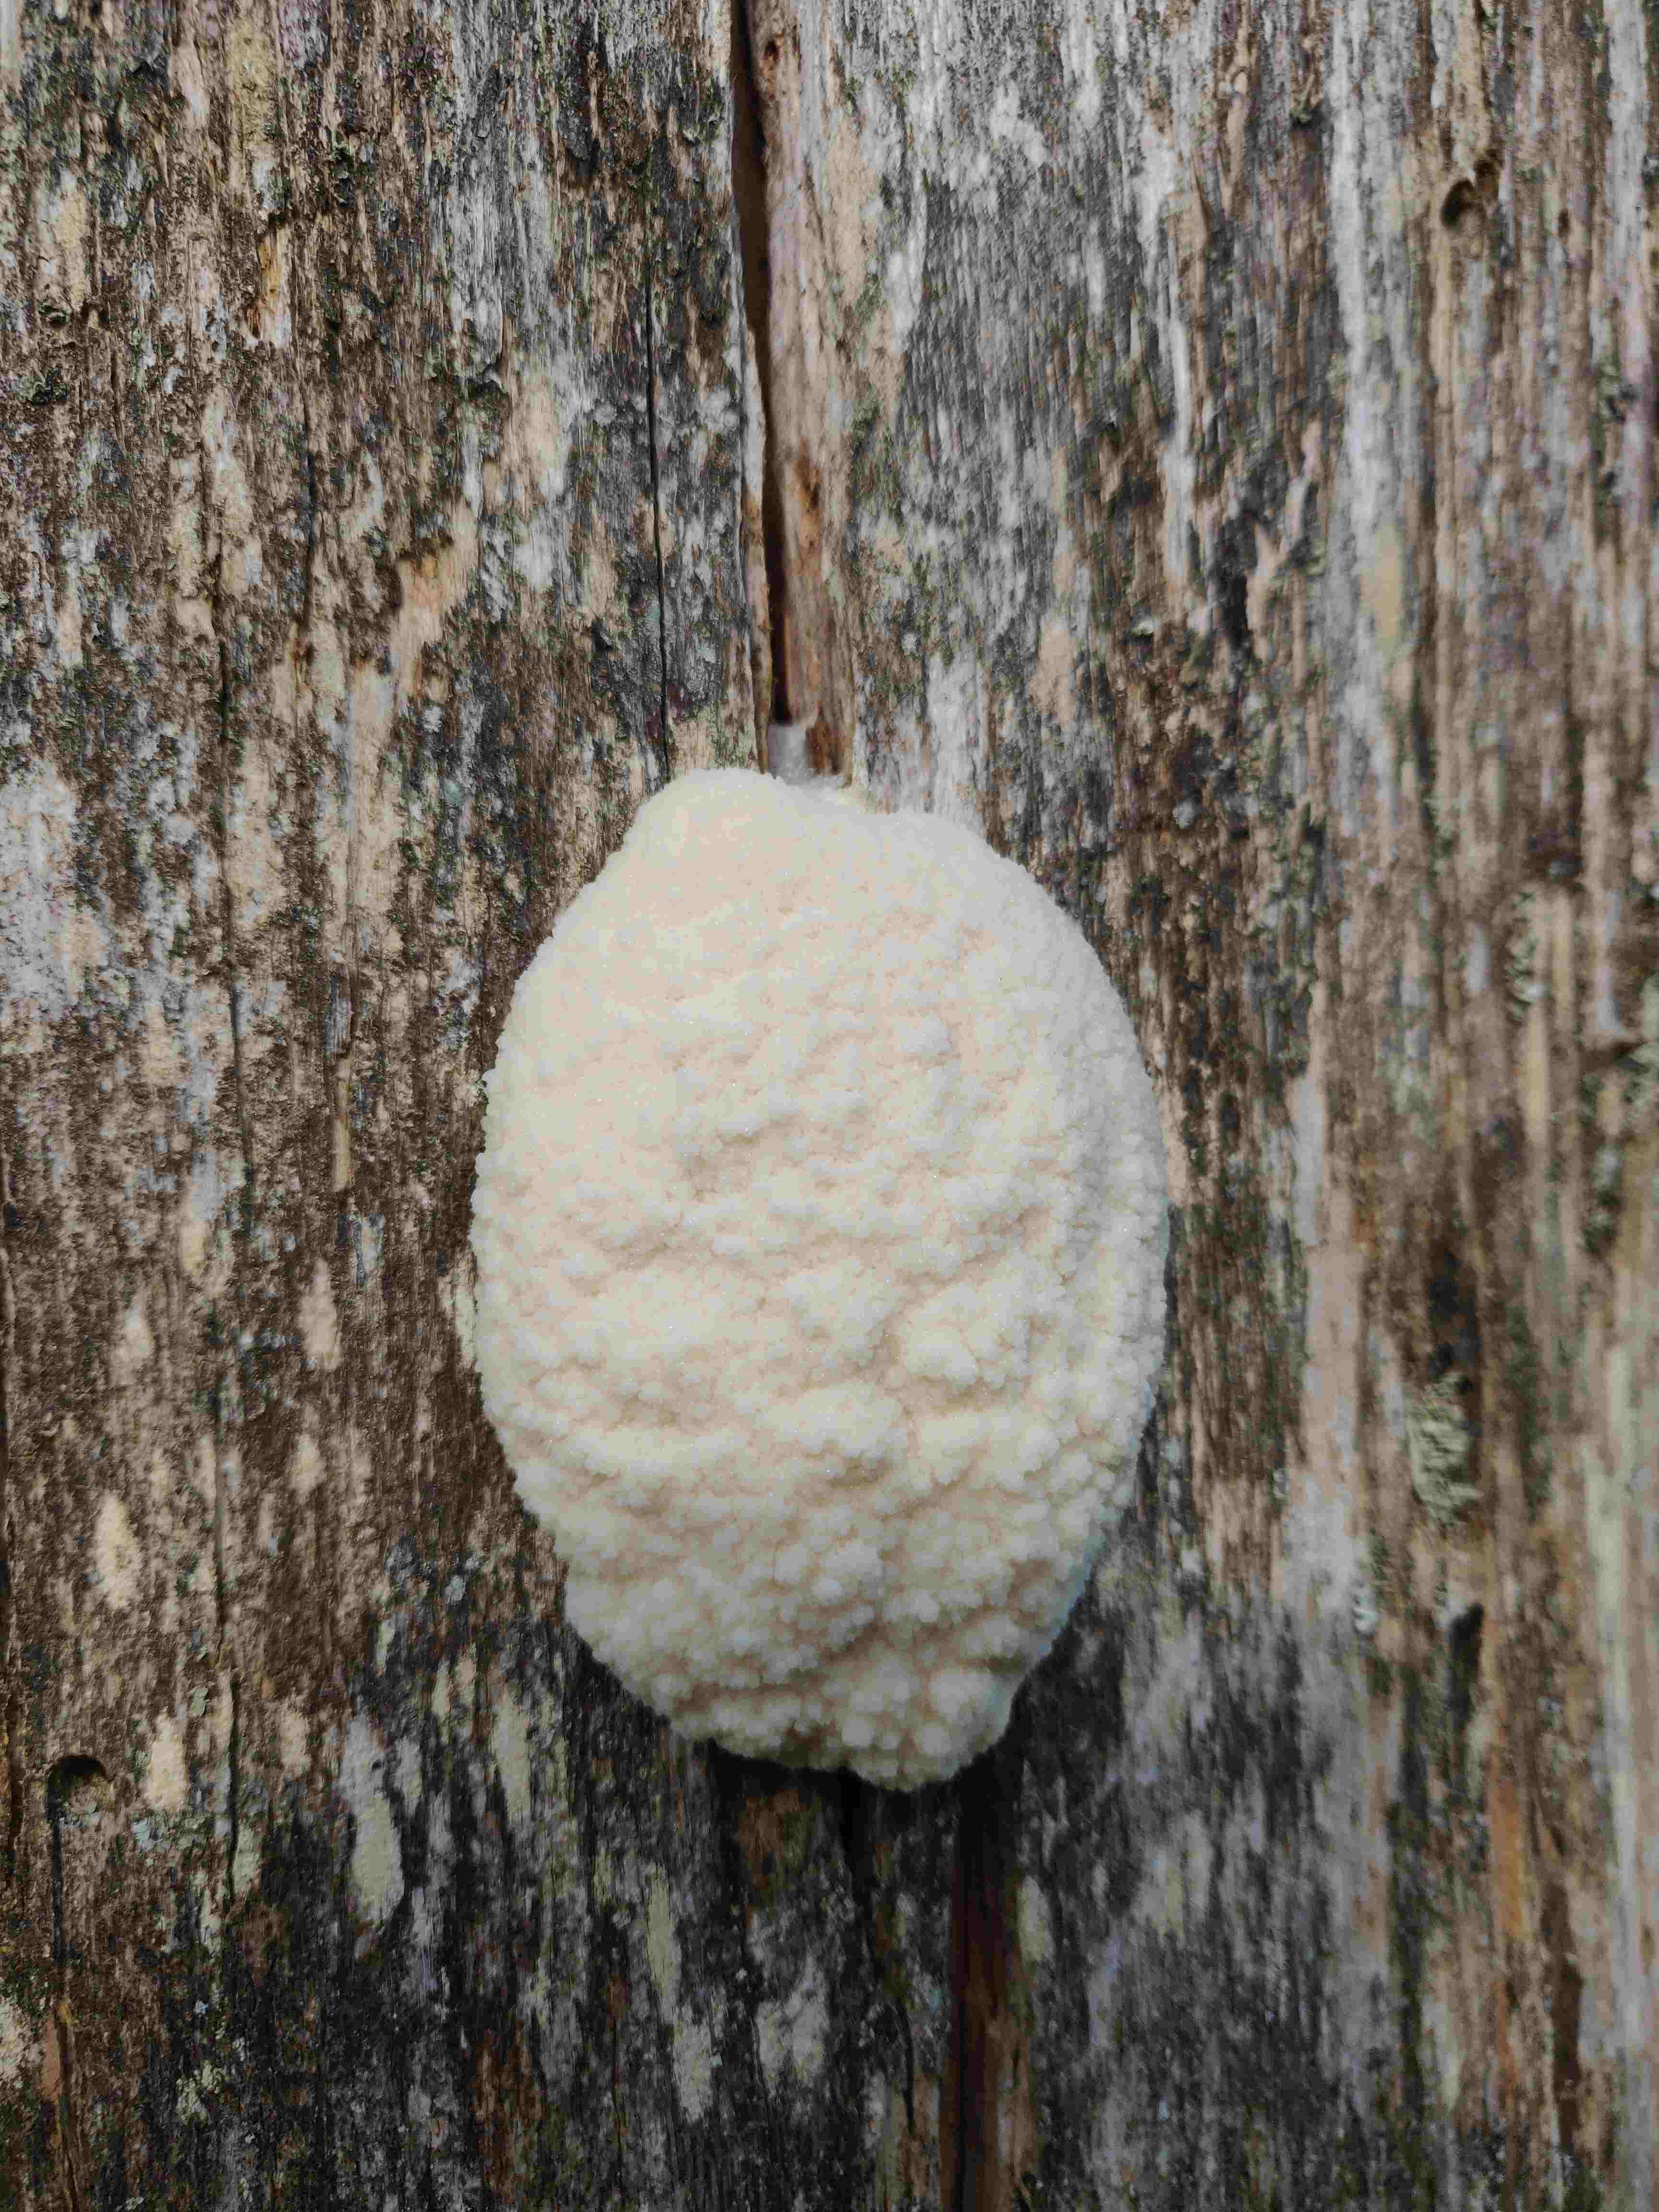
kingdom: Protozoa
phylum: Mycetozoa
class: Myxomycetes
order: Cribrariales
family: Tubiferaceae
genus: Reticularia
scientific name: Reticularia lycoperdon
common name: skinnende støvpude
